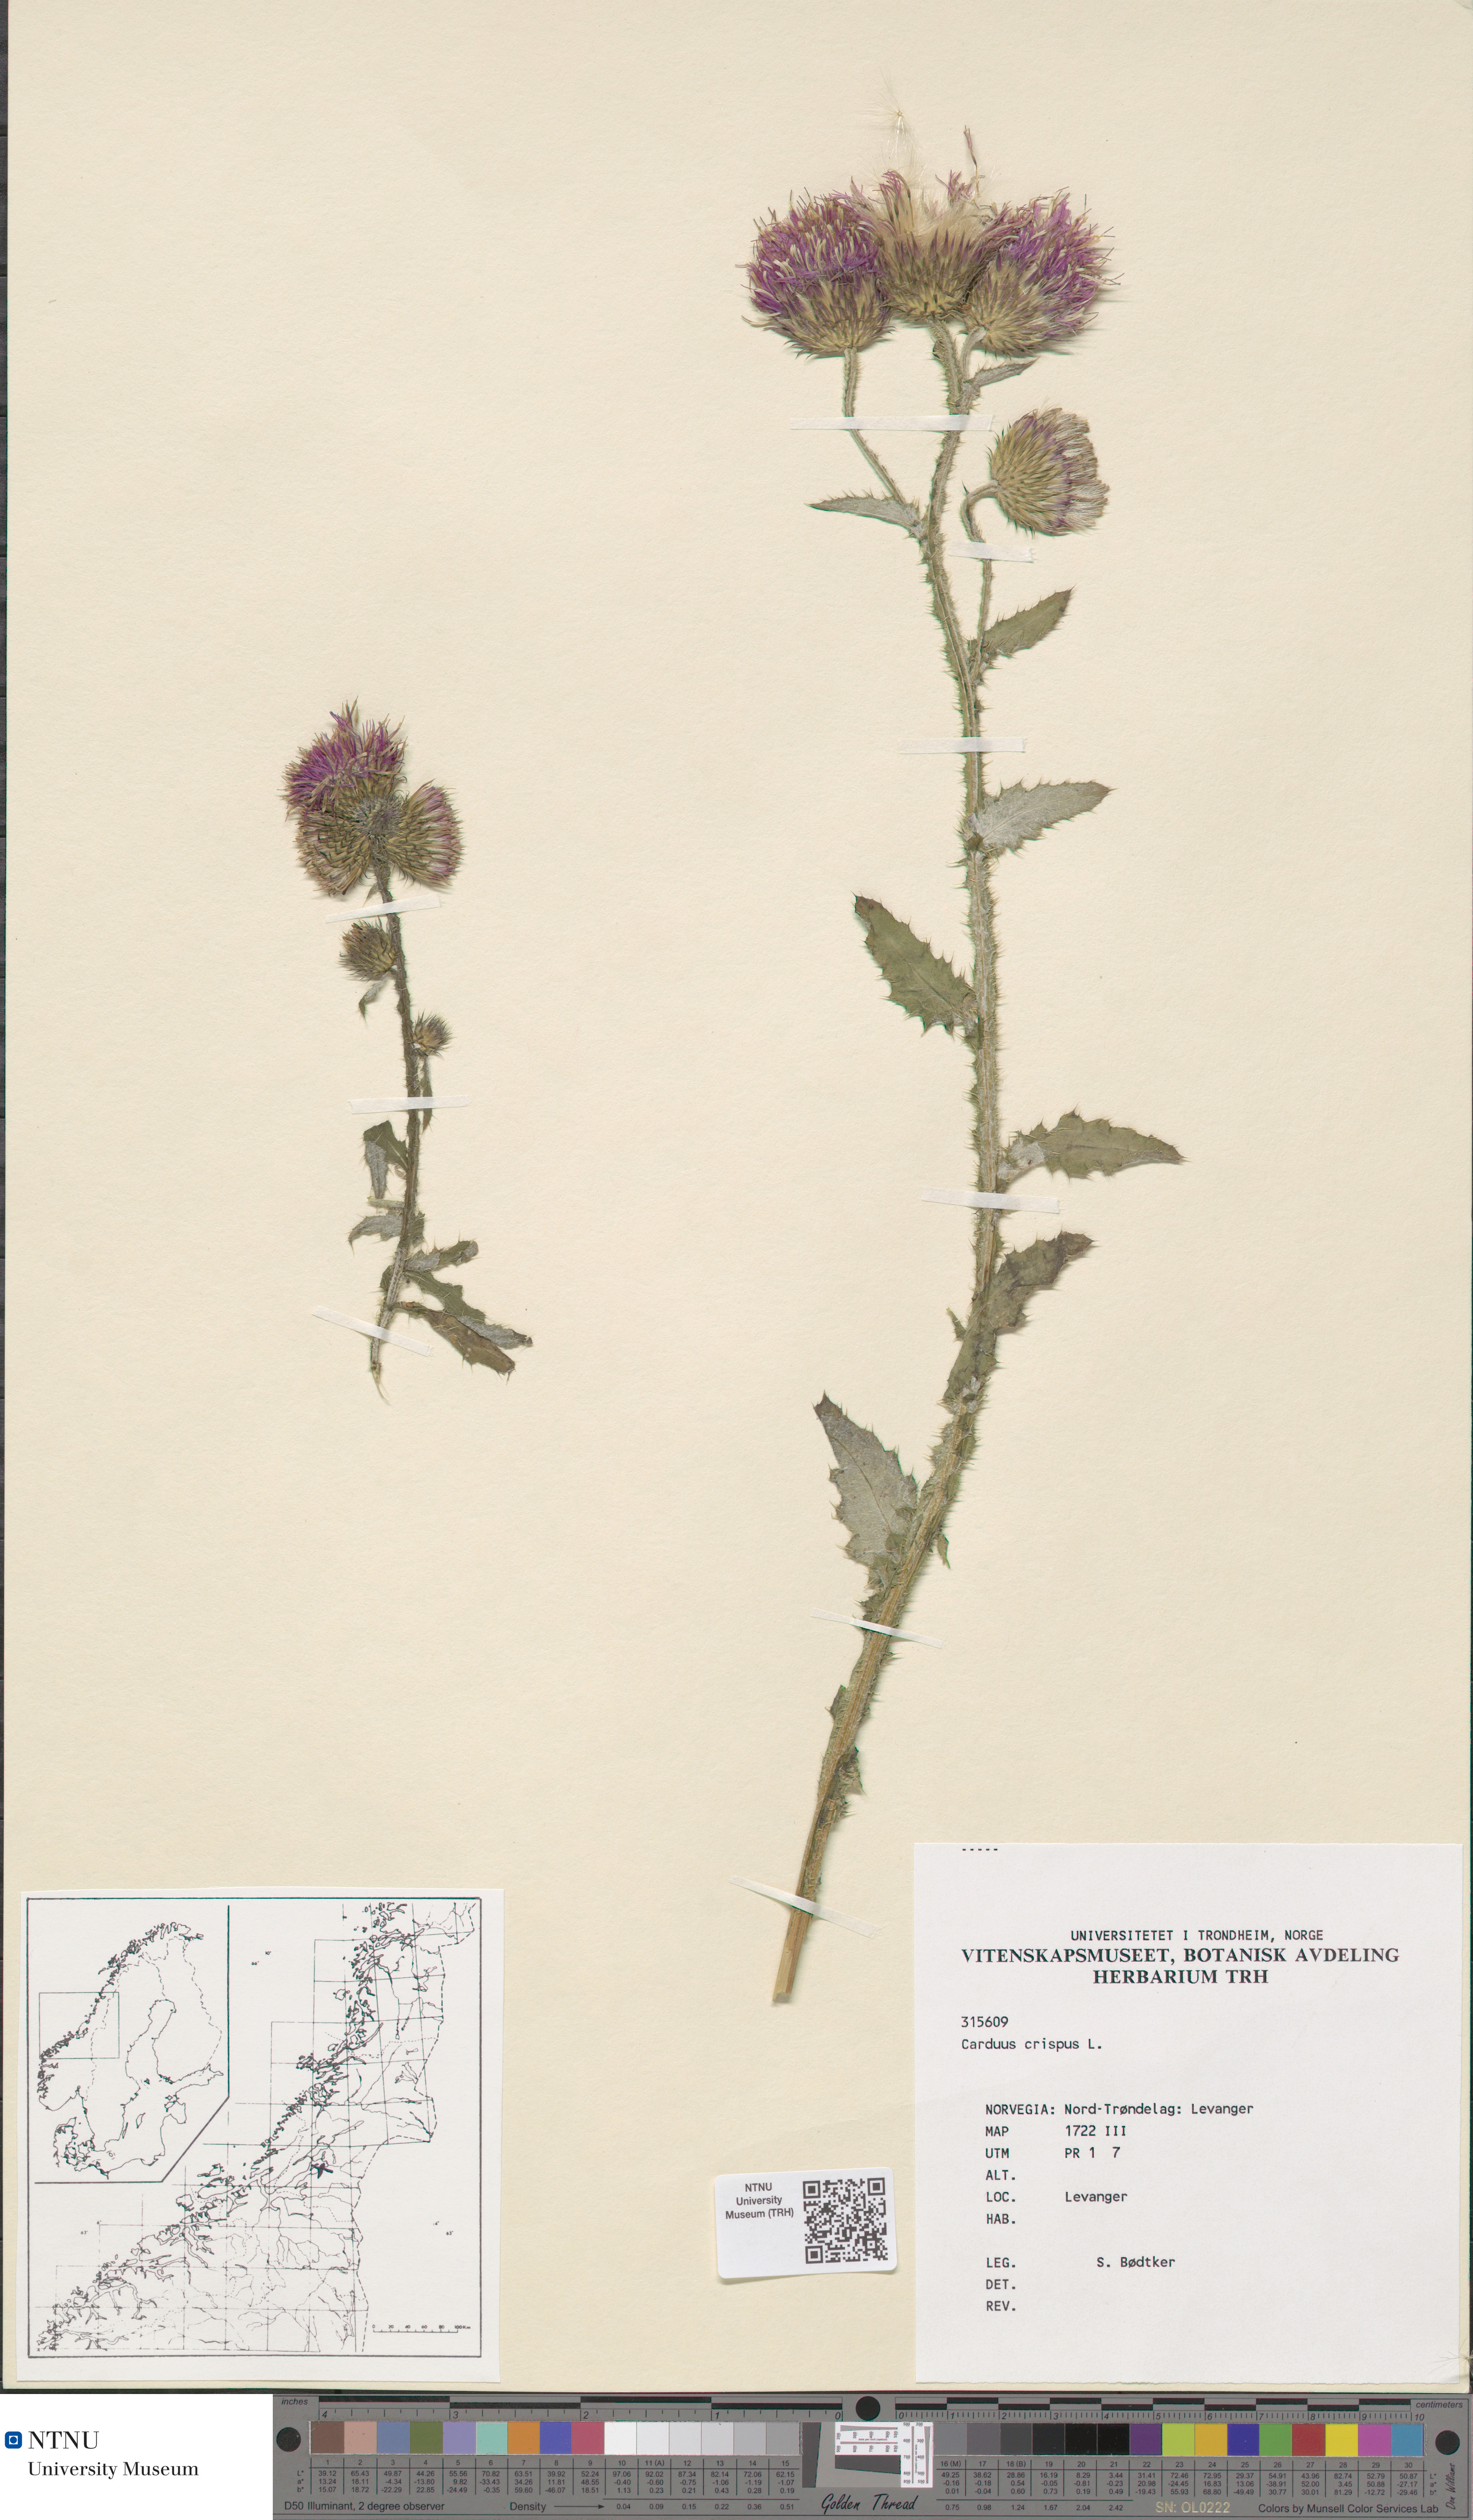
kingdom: Plantae
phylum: Tracheophyta
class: Magnoliopsida
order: Asterales
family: Asteraceae
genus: Carduus
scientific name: Carduus crispus
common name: Welted thistle
